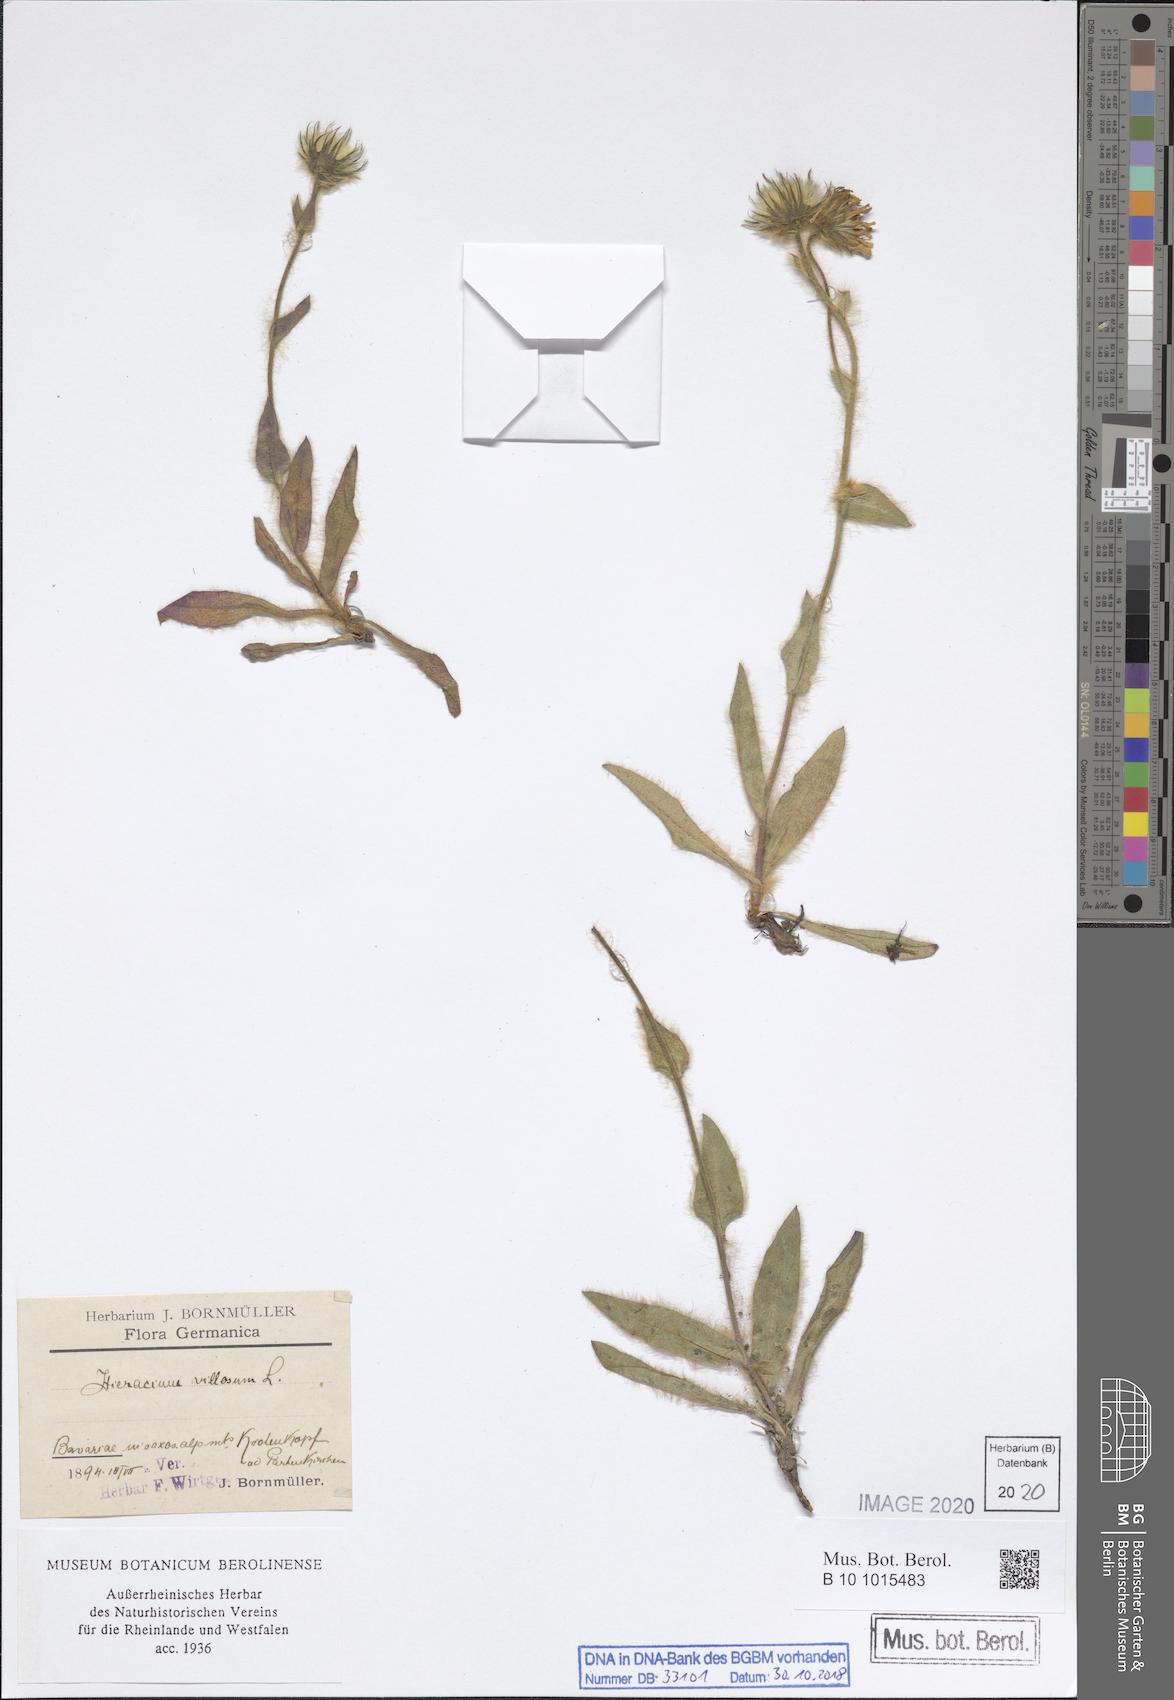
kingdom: Plantae
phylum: Tracheophyta
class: Magnoliopsida
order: Asterales
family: Asteraceae
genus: Hieracium
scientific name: Hieracium villosum
